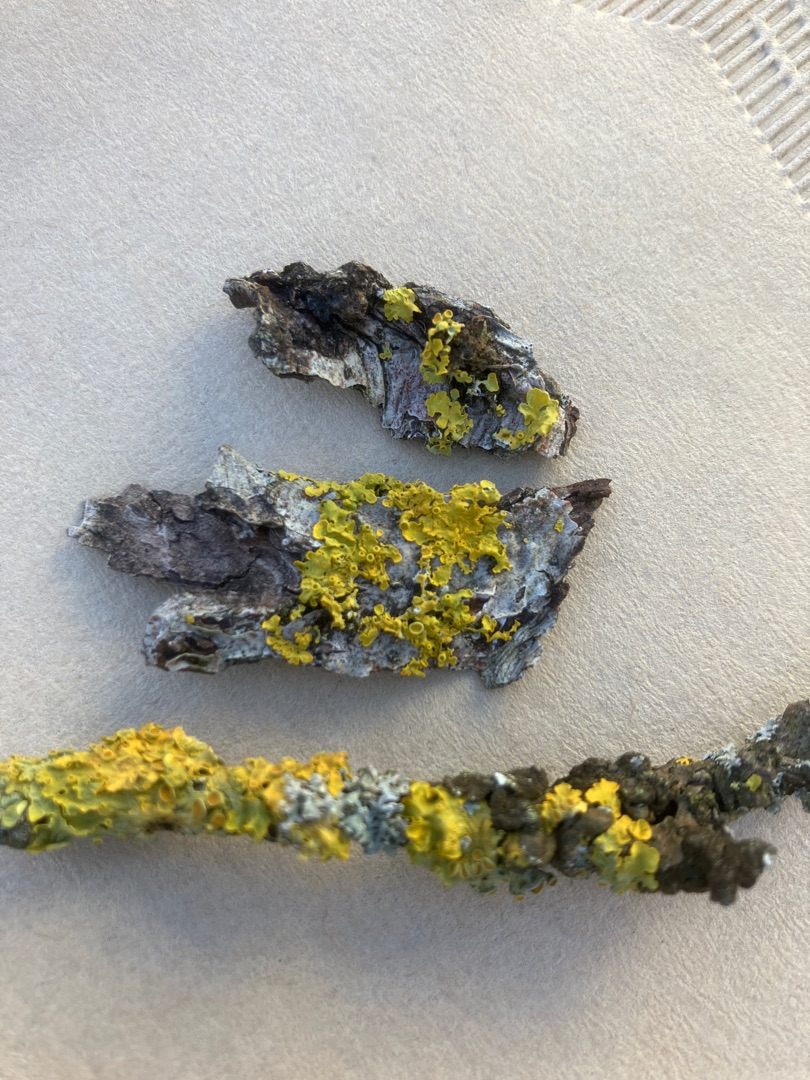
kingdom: Fungi
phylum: Ascomycota
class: Lecanoromycetes
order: Teloschistales
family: Teloschistaceae
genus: Xanthoria
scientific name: Xanthoria parietina
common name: Almindelig væggelav
